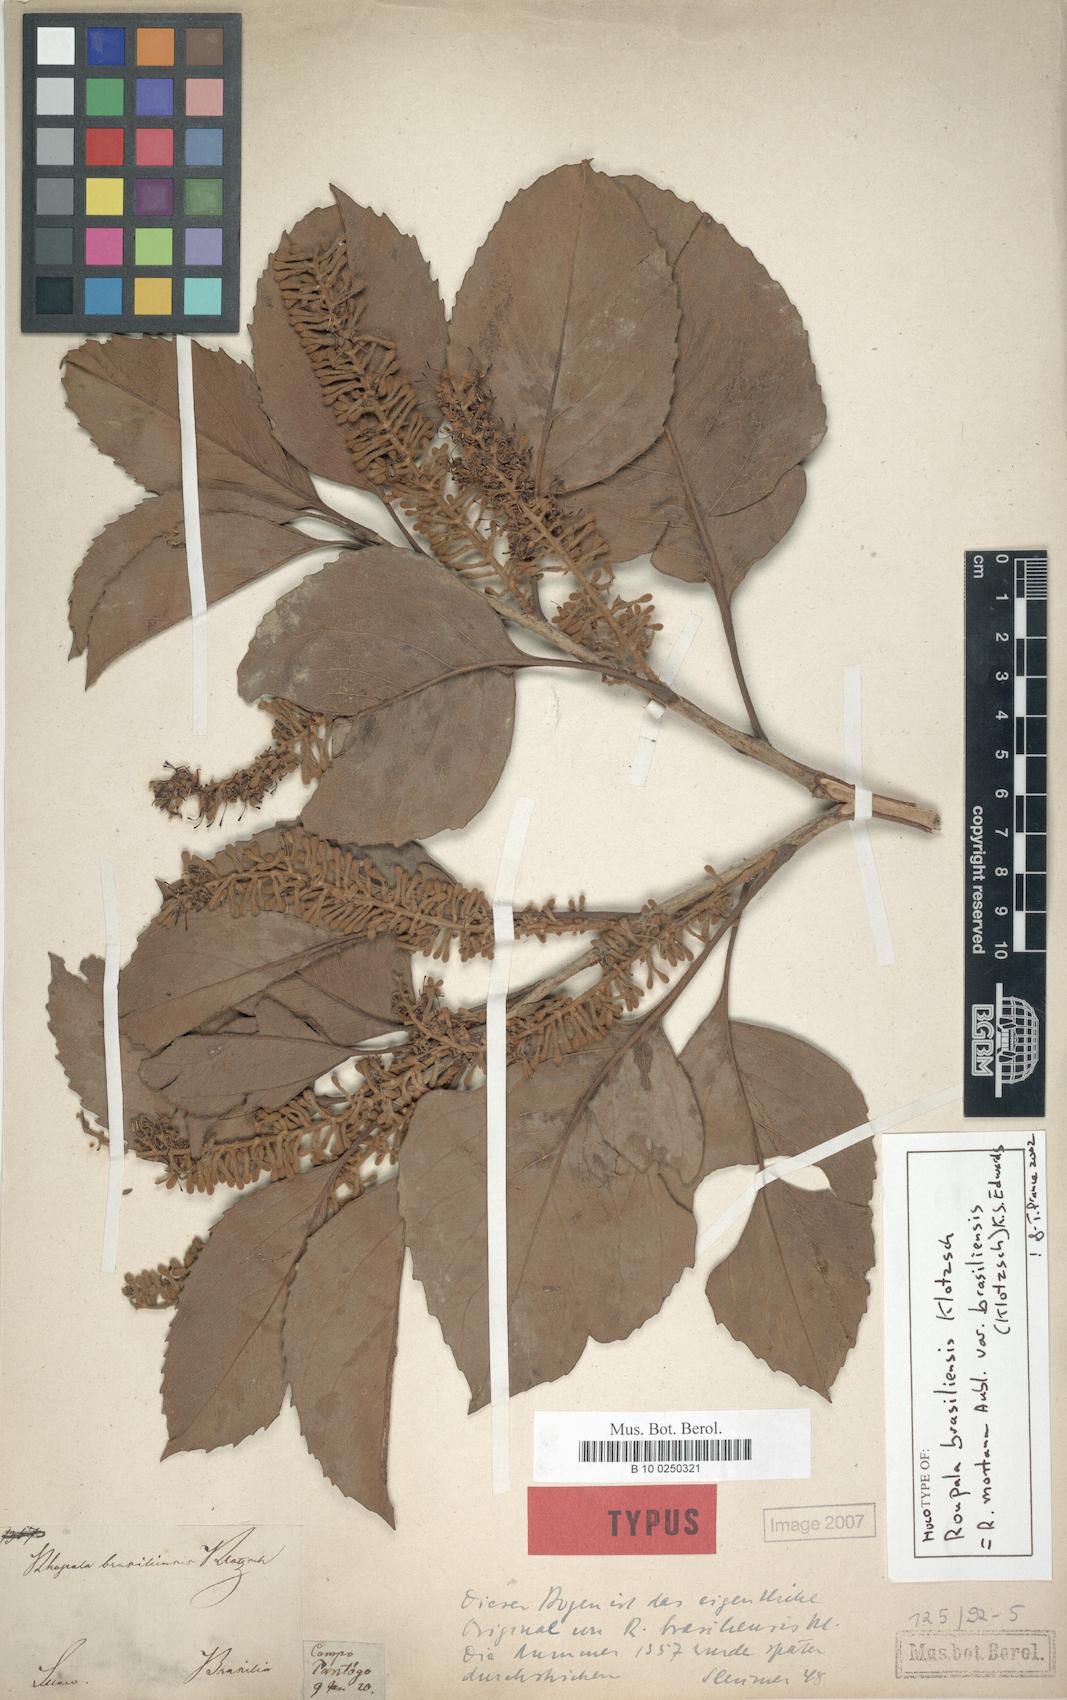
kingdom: Plantae
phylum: Tracheophyta
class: Magnoliopsida
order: Proteales
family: Proteaceae
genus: Roupala
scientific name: Roupala montana
